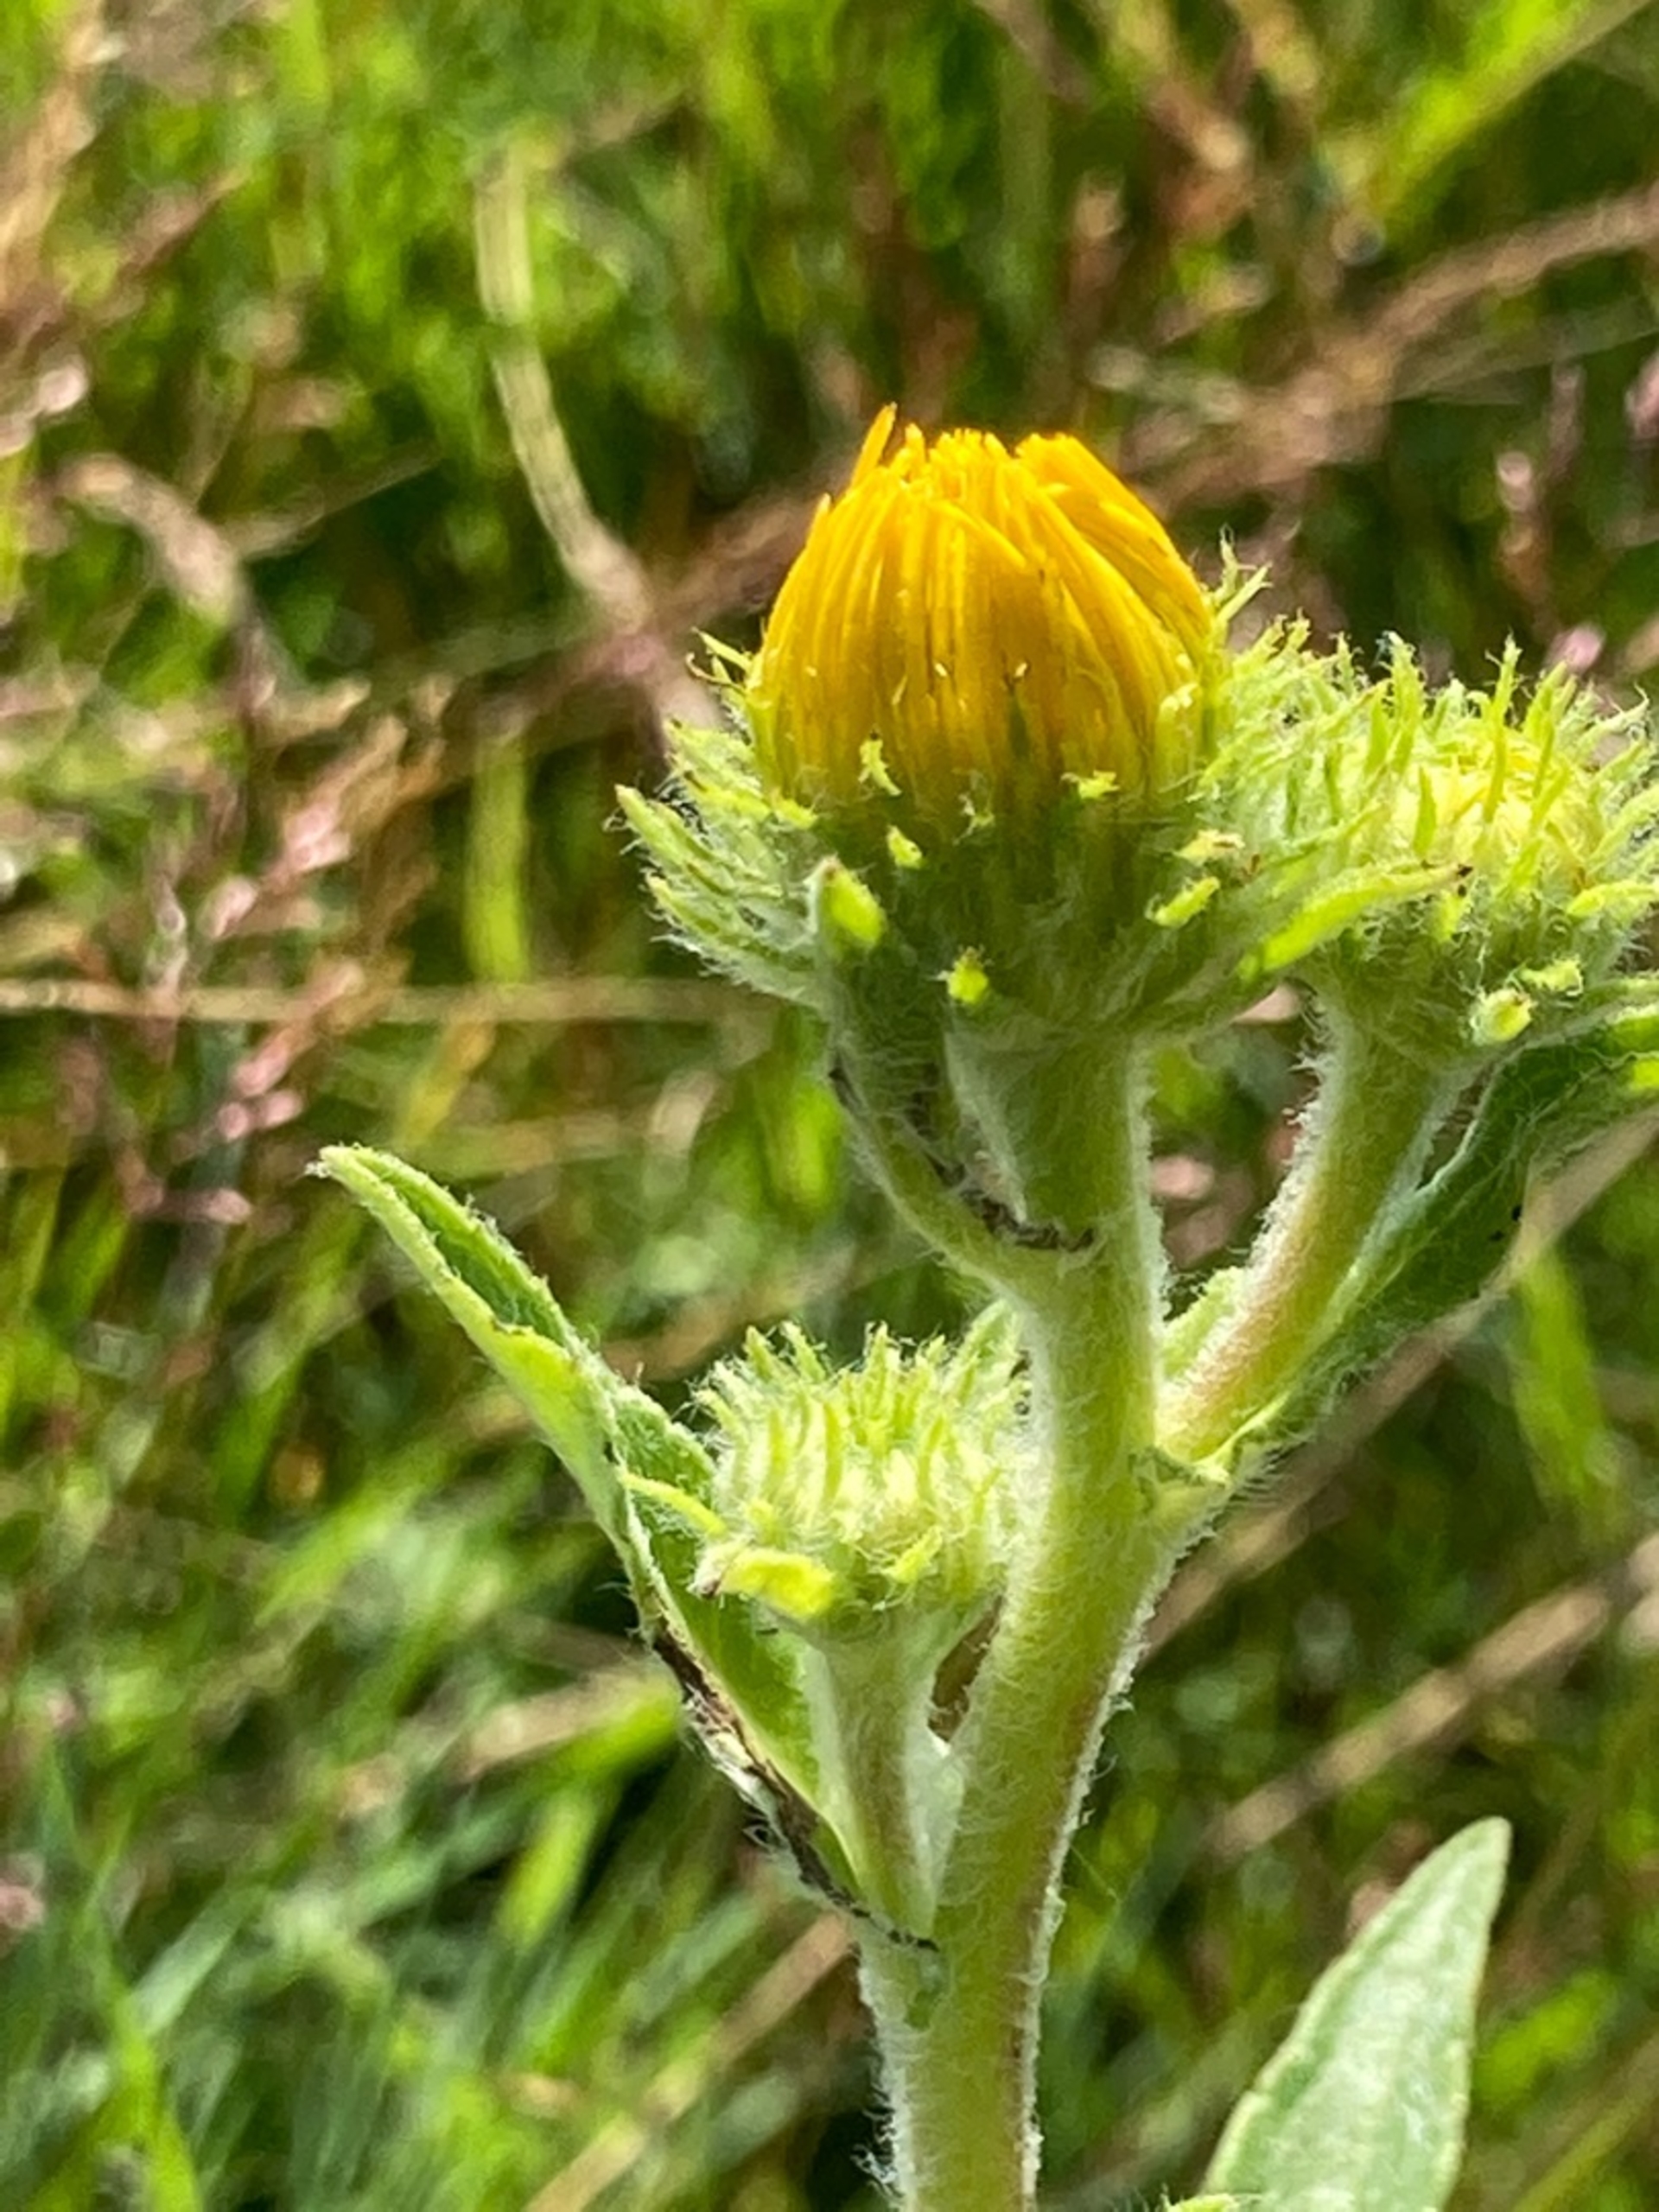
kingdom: Plantae
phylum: Tracheophyta
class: Magnoliopsida
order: Asterales
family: Asteraceae
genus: Pentanema
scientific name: Pentanema britannicum
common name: Soløje-alant
